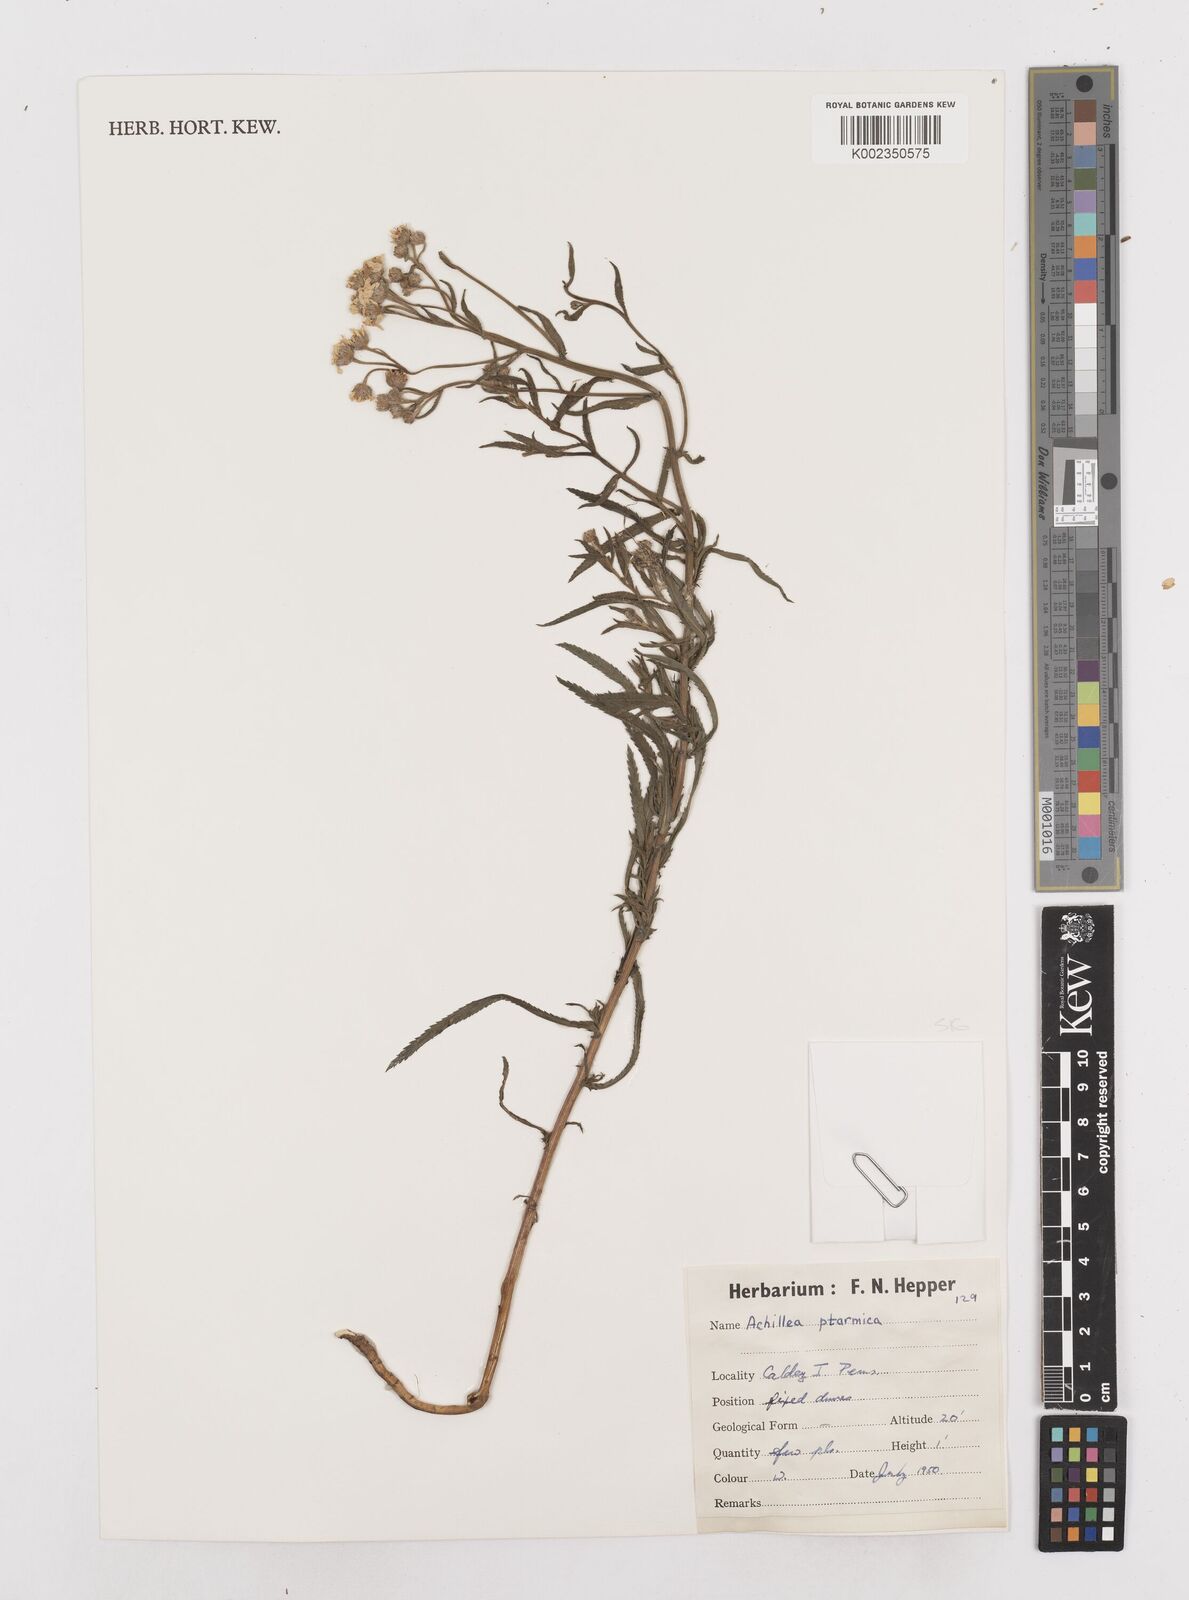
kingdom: Plantae
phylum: Tracheophyta
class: Magnoliopsida
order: Asterales
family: Asteraceae
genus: Achillea
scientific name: Achillea
